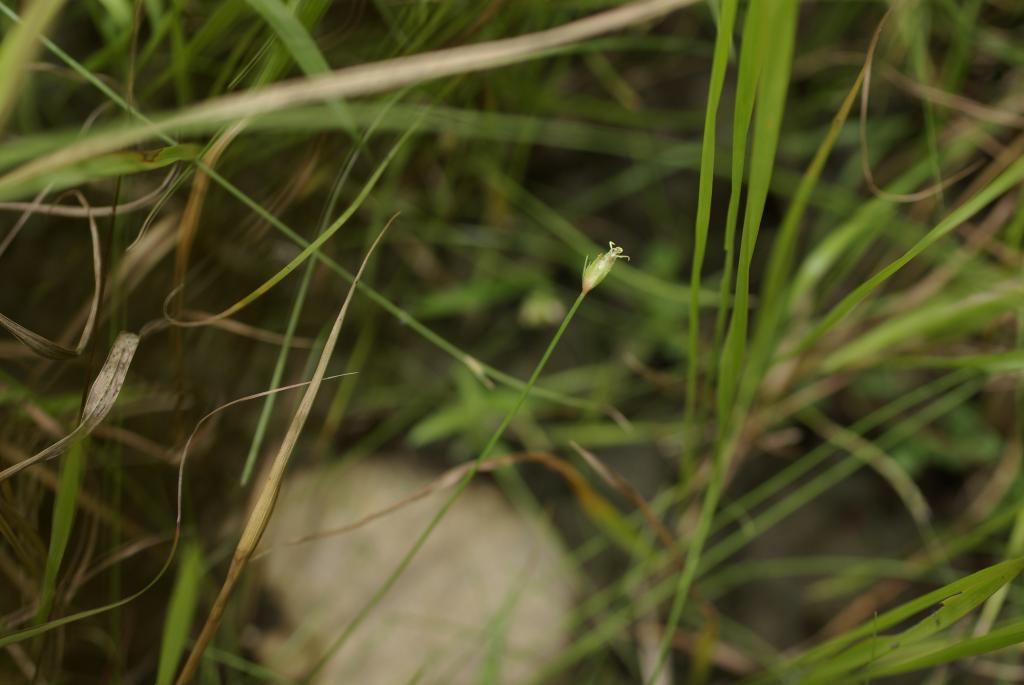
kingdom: Plantae
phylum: Tracheophyta
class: Liliopsida
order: Poales
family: Cyperaceae
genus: Abildgaardia
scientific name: Abildgaardia ovata
